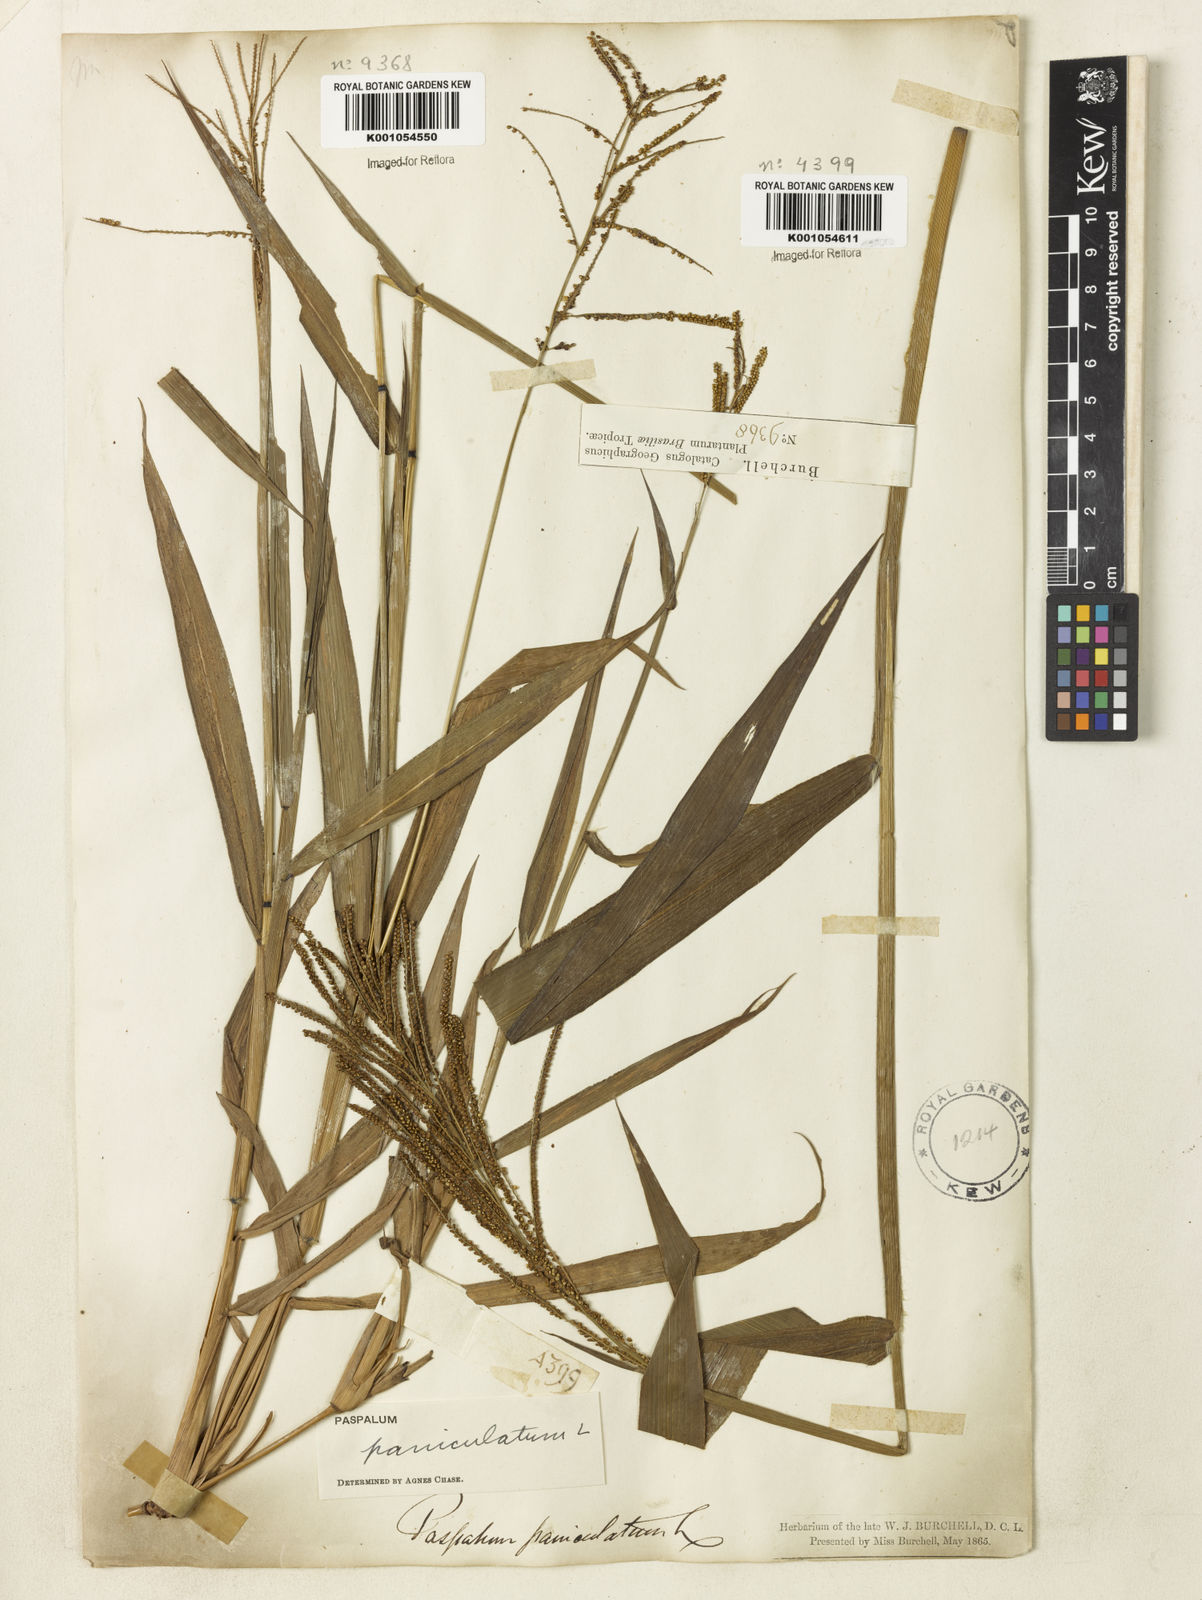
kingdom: Plantae
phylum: Tracheophyta
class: Liliopsida
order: Poales
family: Poaceae
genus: Paspalum
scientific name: Paspalum paniculatum
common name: Arrocillo
